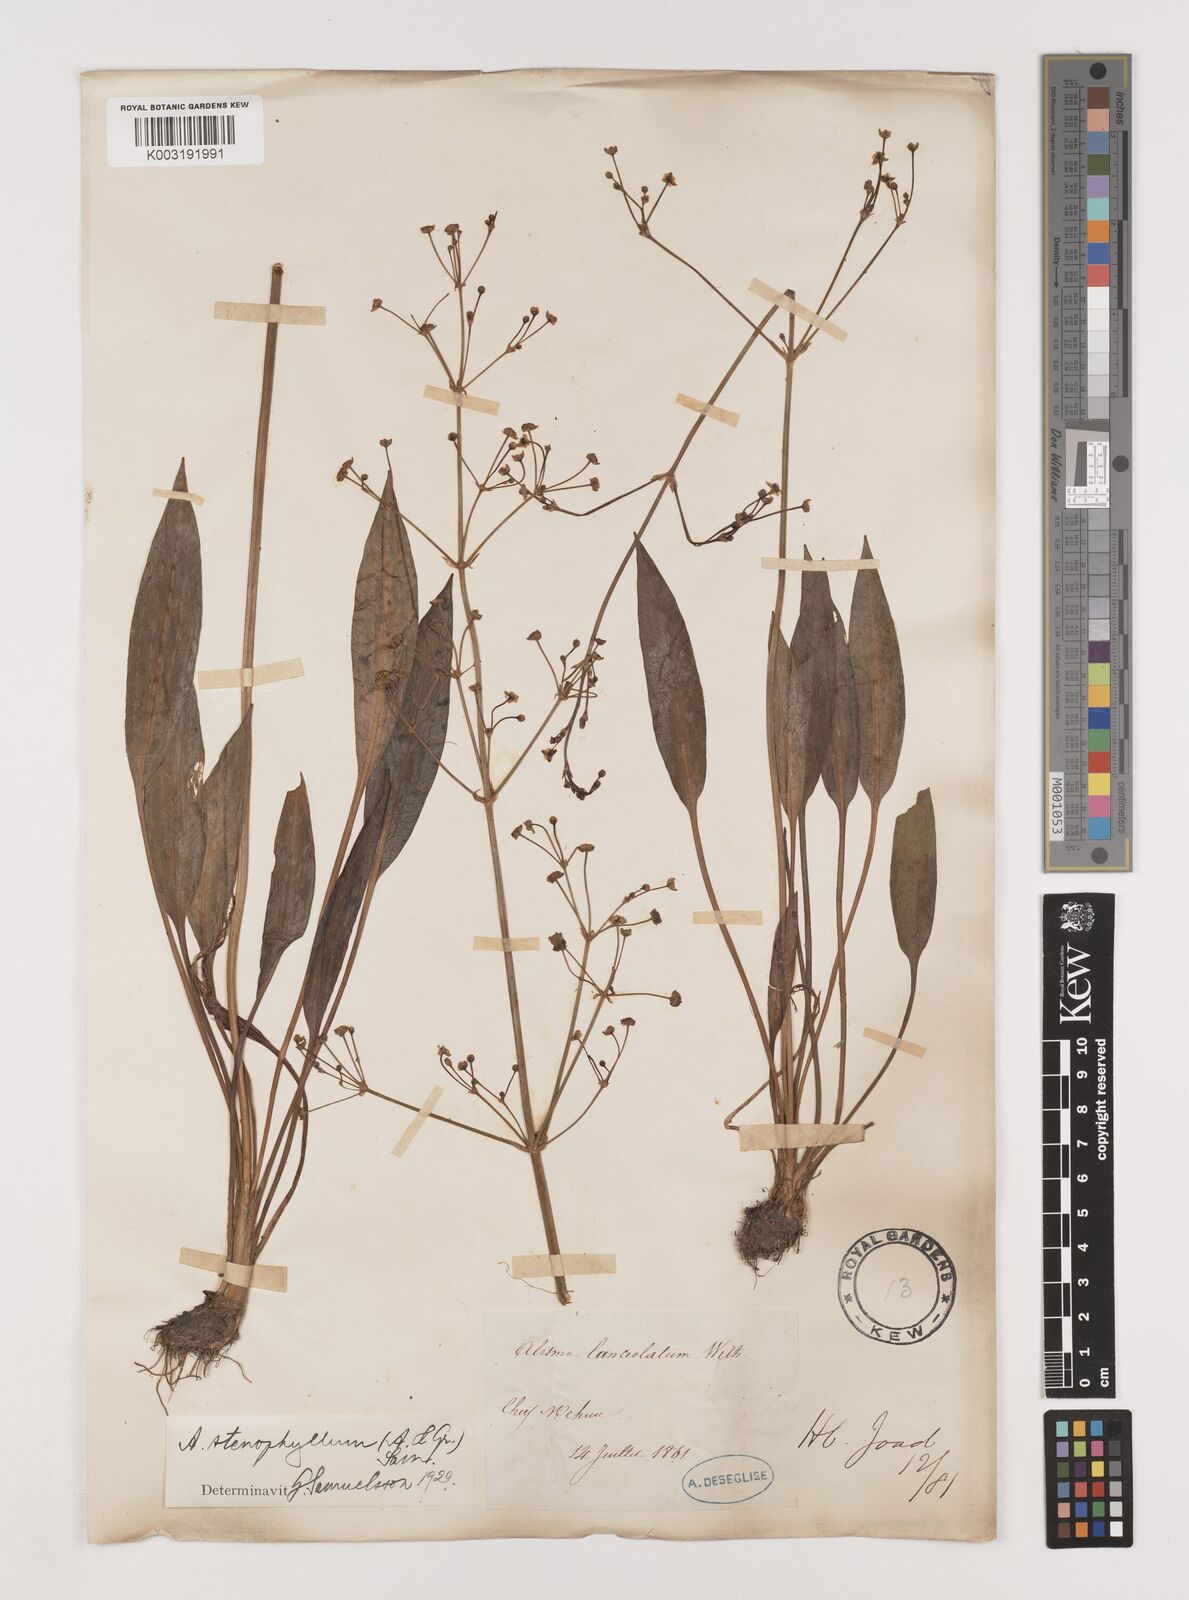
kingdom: Plantae
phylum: Tracheophyta
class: Liliopsida
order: Alismatales
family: Alismataceae
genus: Alisma
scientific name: Alisma lanceolatum
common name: Narrow-leaved water-plantain
